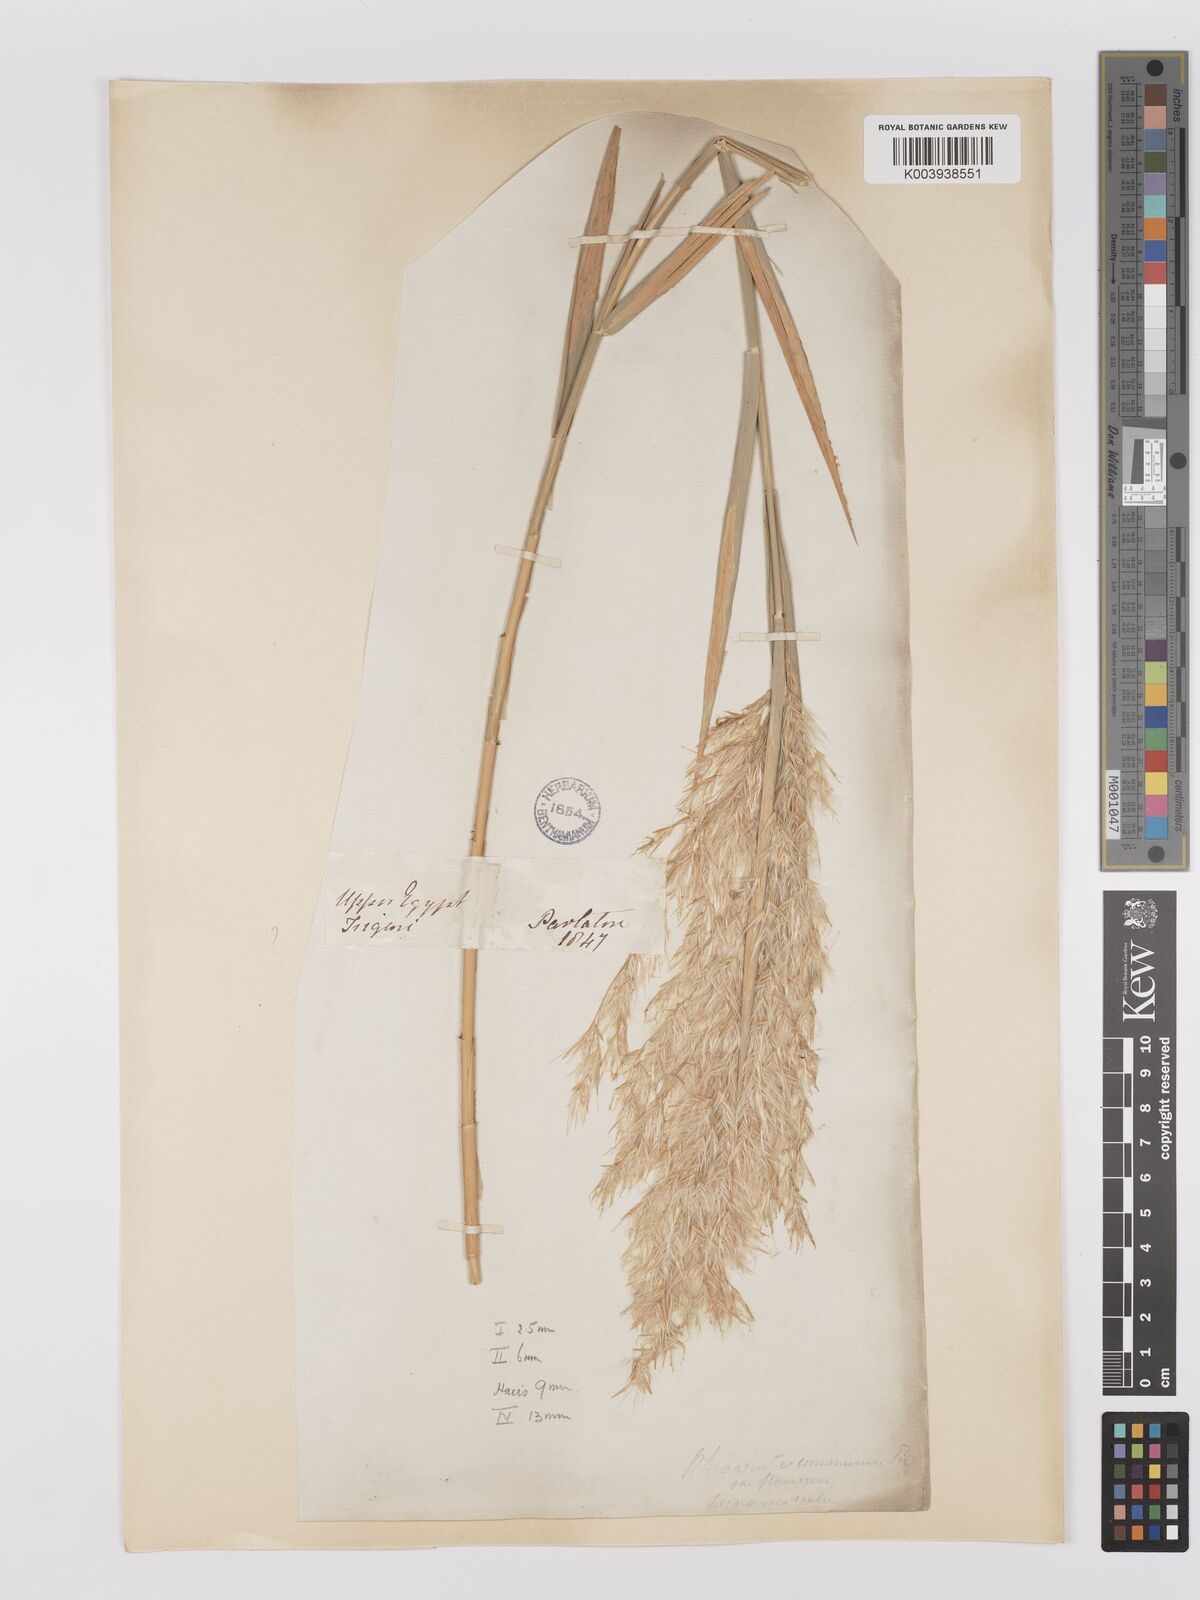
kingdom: Plantae
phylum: Tracheophyta
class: Liliopsida
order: Poales
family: Poaceae
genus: Phragmites
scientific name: Phragmites australis
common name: Common reed
